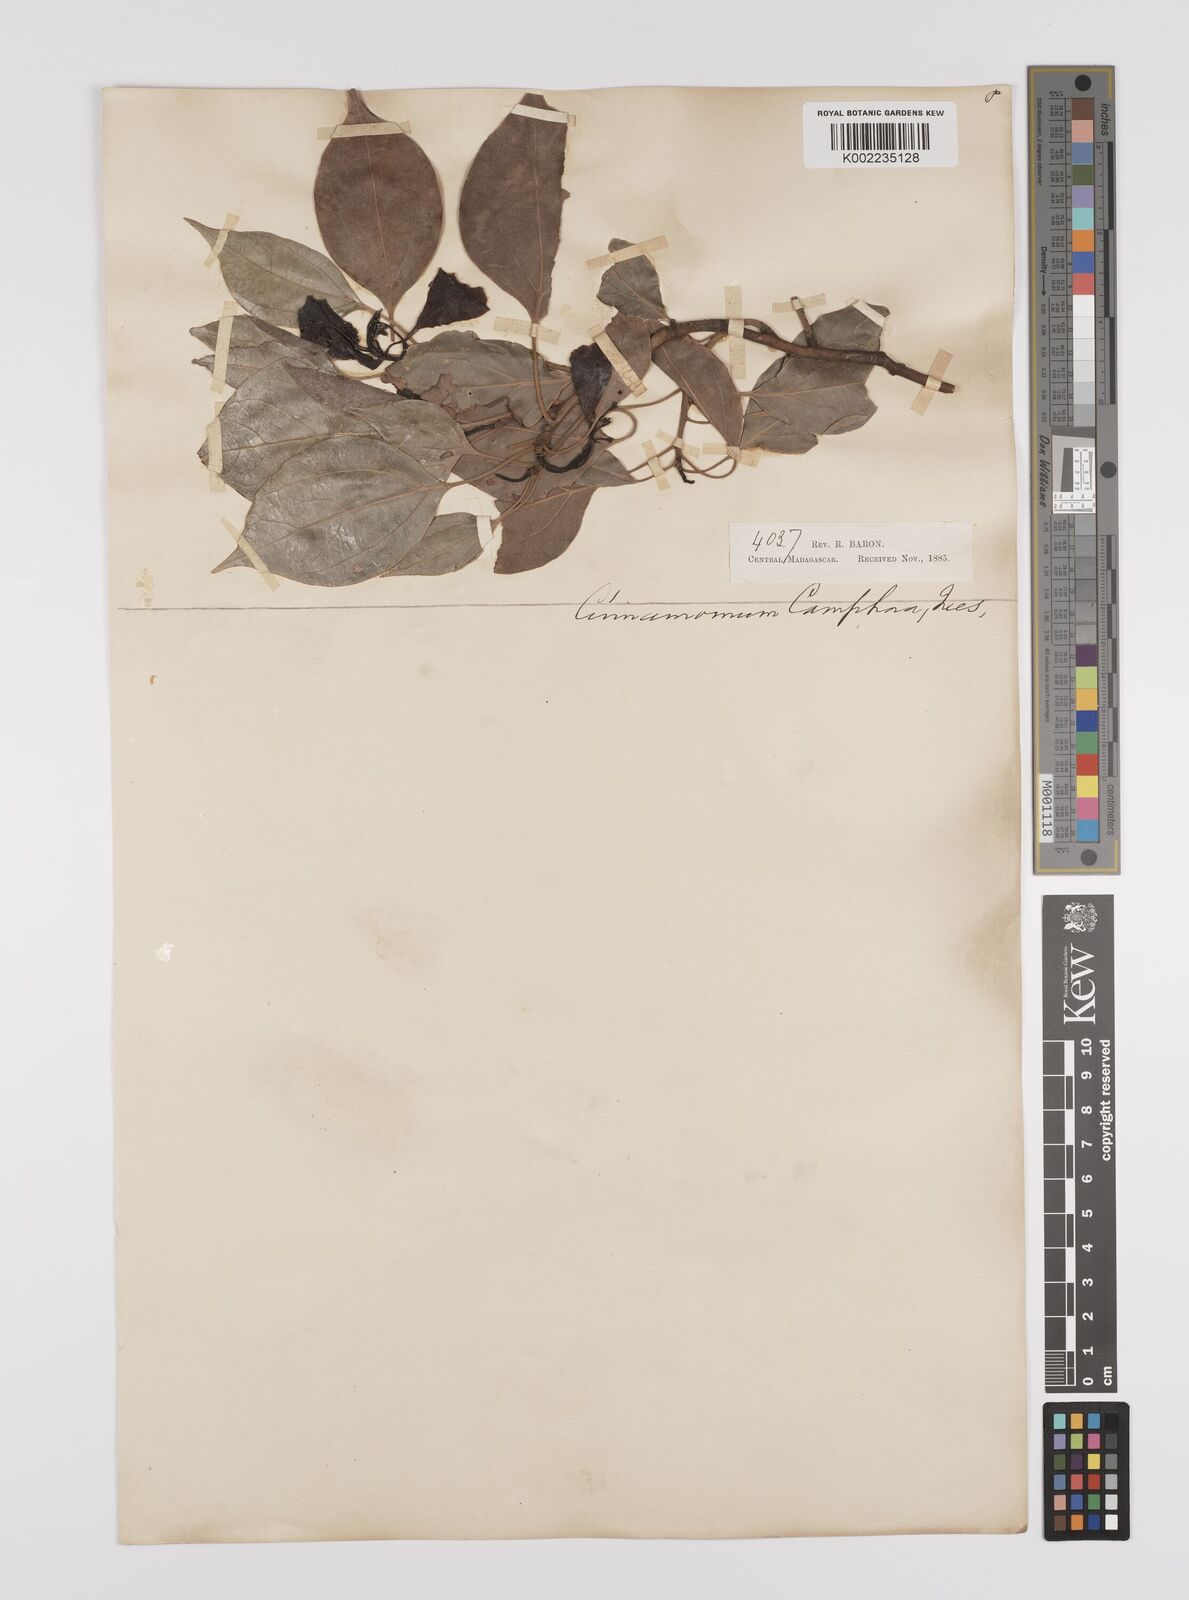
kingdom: Plantae
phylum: Tracheophyta
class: Magnoliopsida
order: Laurales
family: Lauraceae
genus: Cinnamomum
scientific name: Cinnamomum camphora
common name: Camphortree
